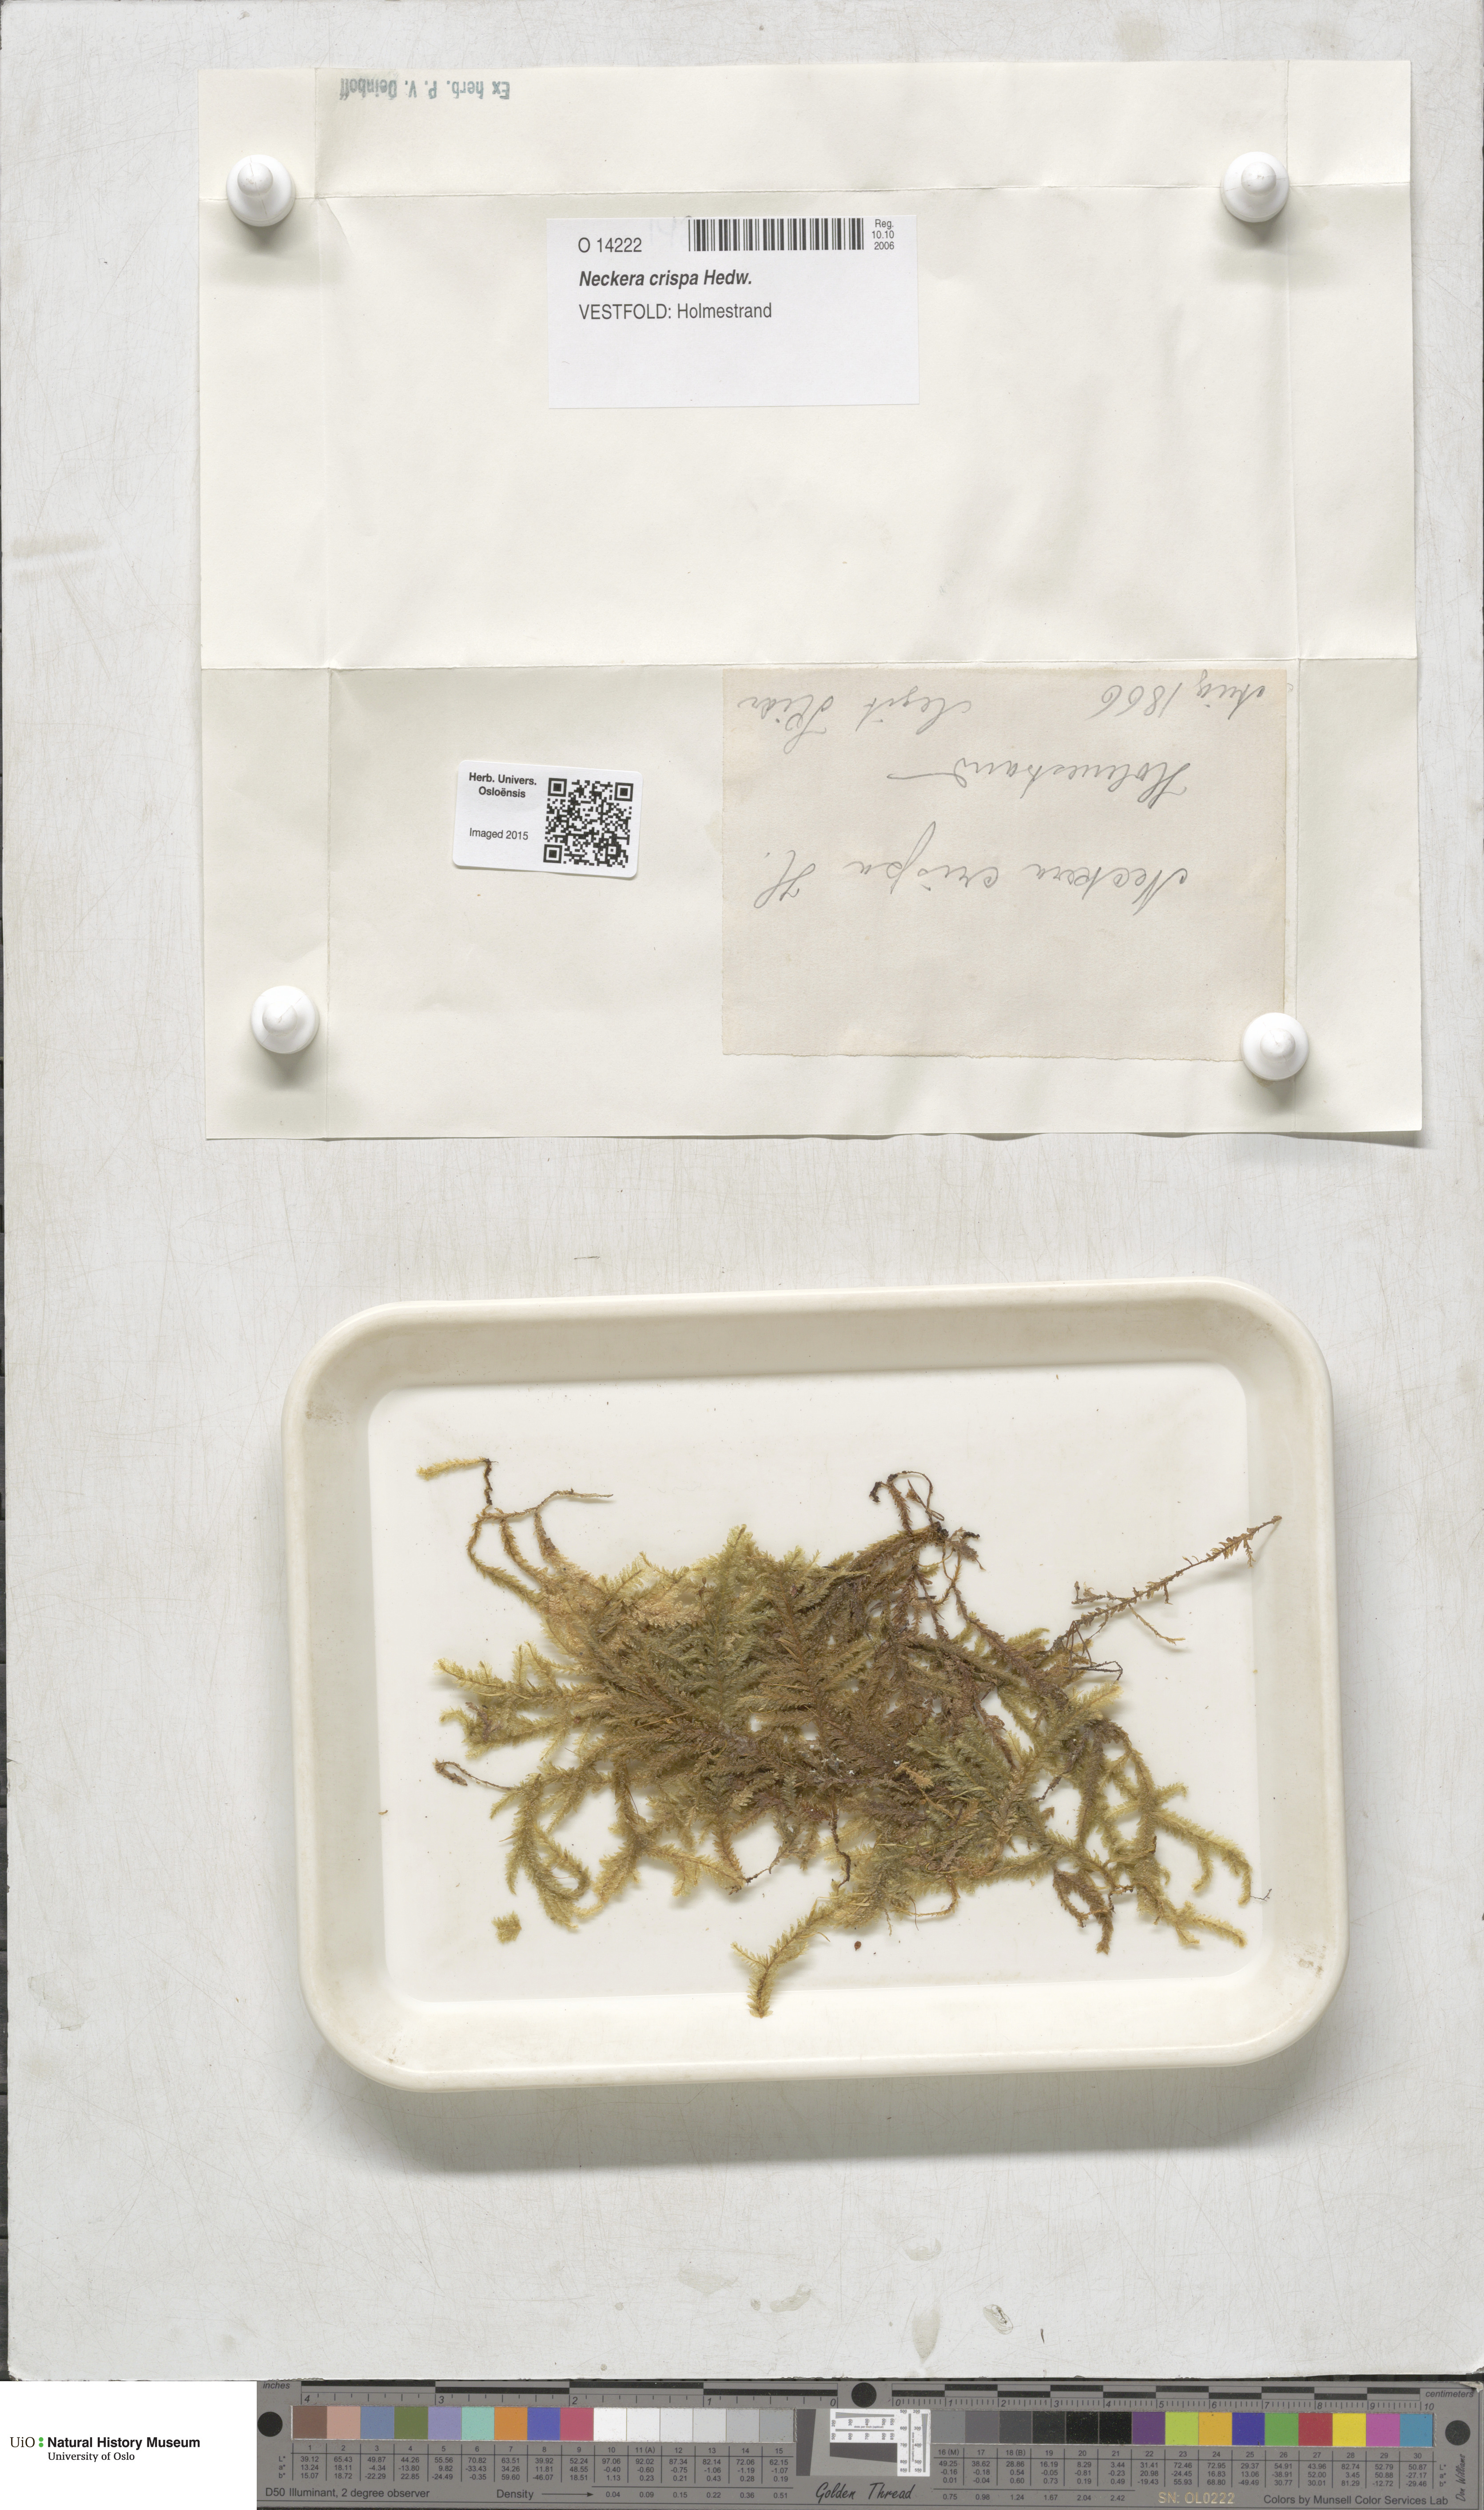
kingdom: Plantae
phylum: Bryophyta
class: Bryopsida
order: Hypnales
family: Neckeraceae
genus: Exsertotheca
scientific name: Exsertotheca crispa
